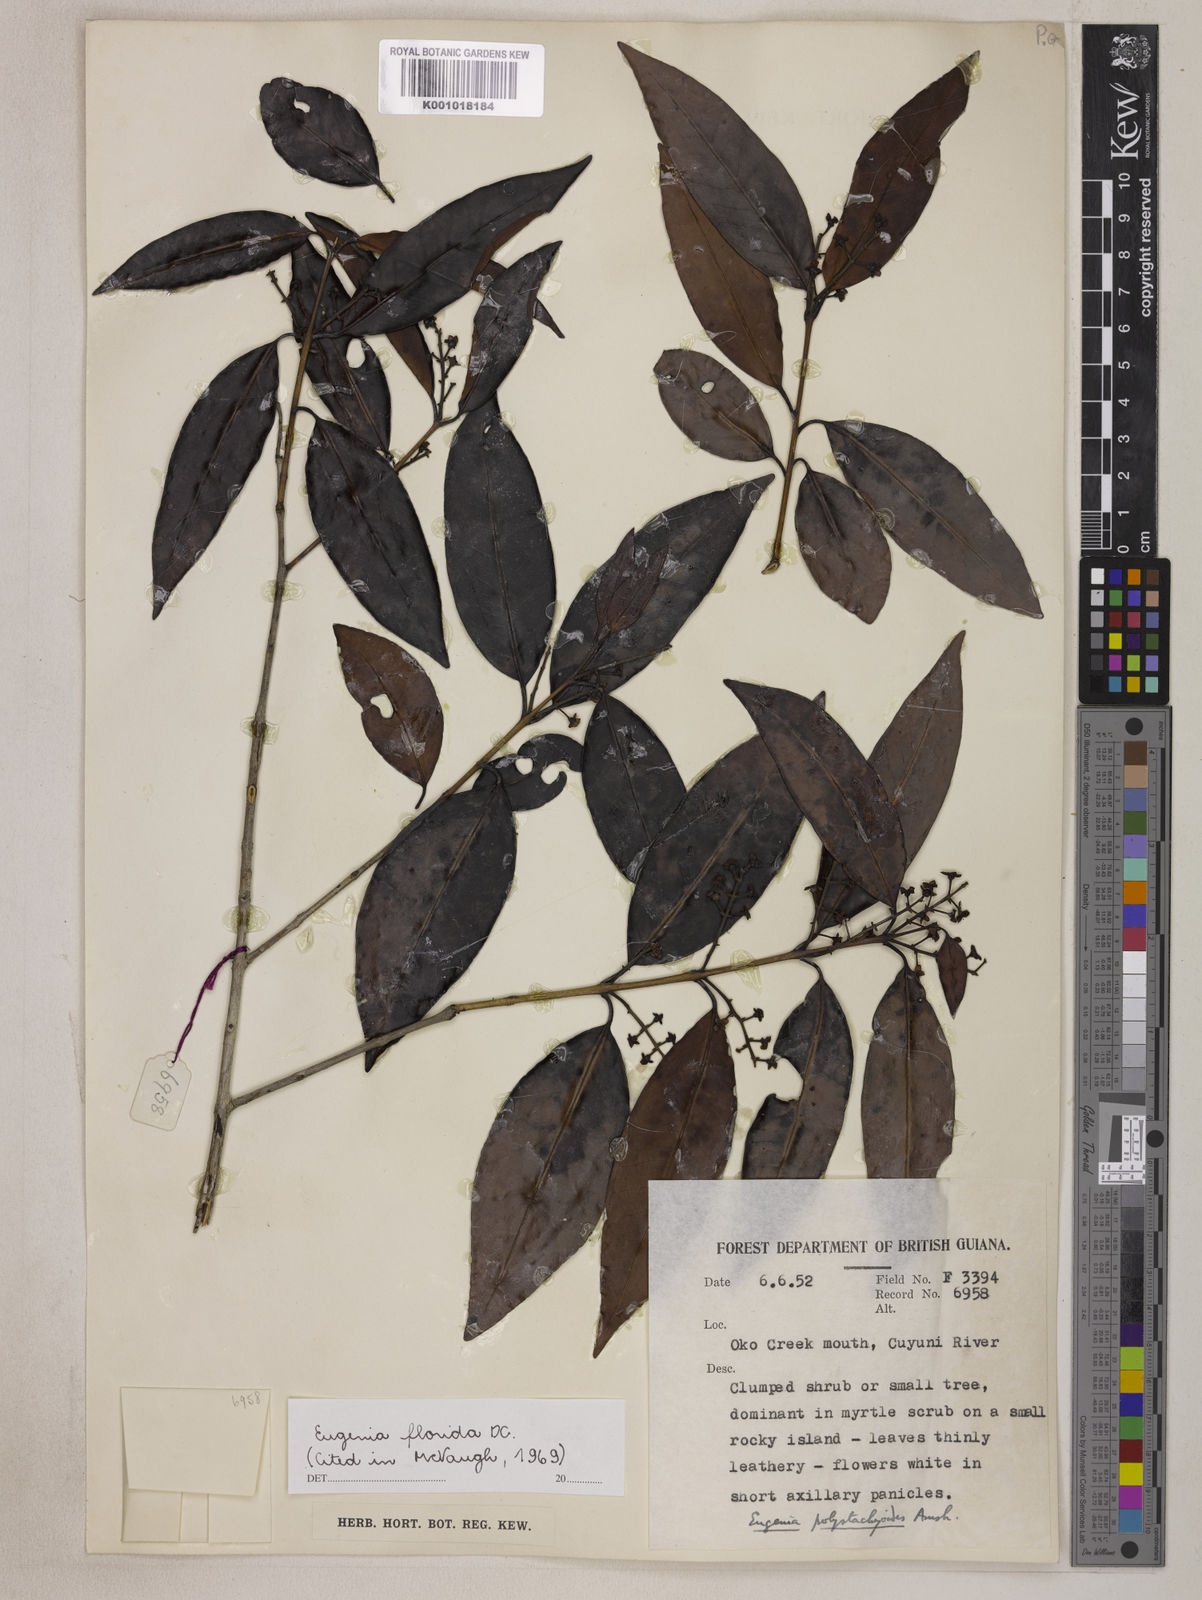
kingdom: Plantae
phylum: Tracheophyta
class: Magnoliopsida
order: Myrtales
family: Myrtaceae
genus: Eugenia
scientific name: Eugenia florida
